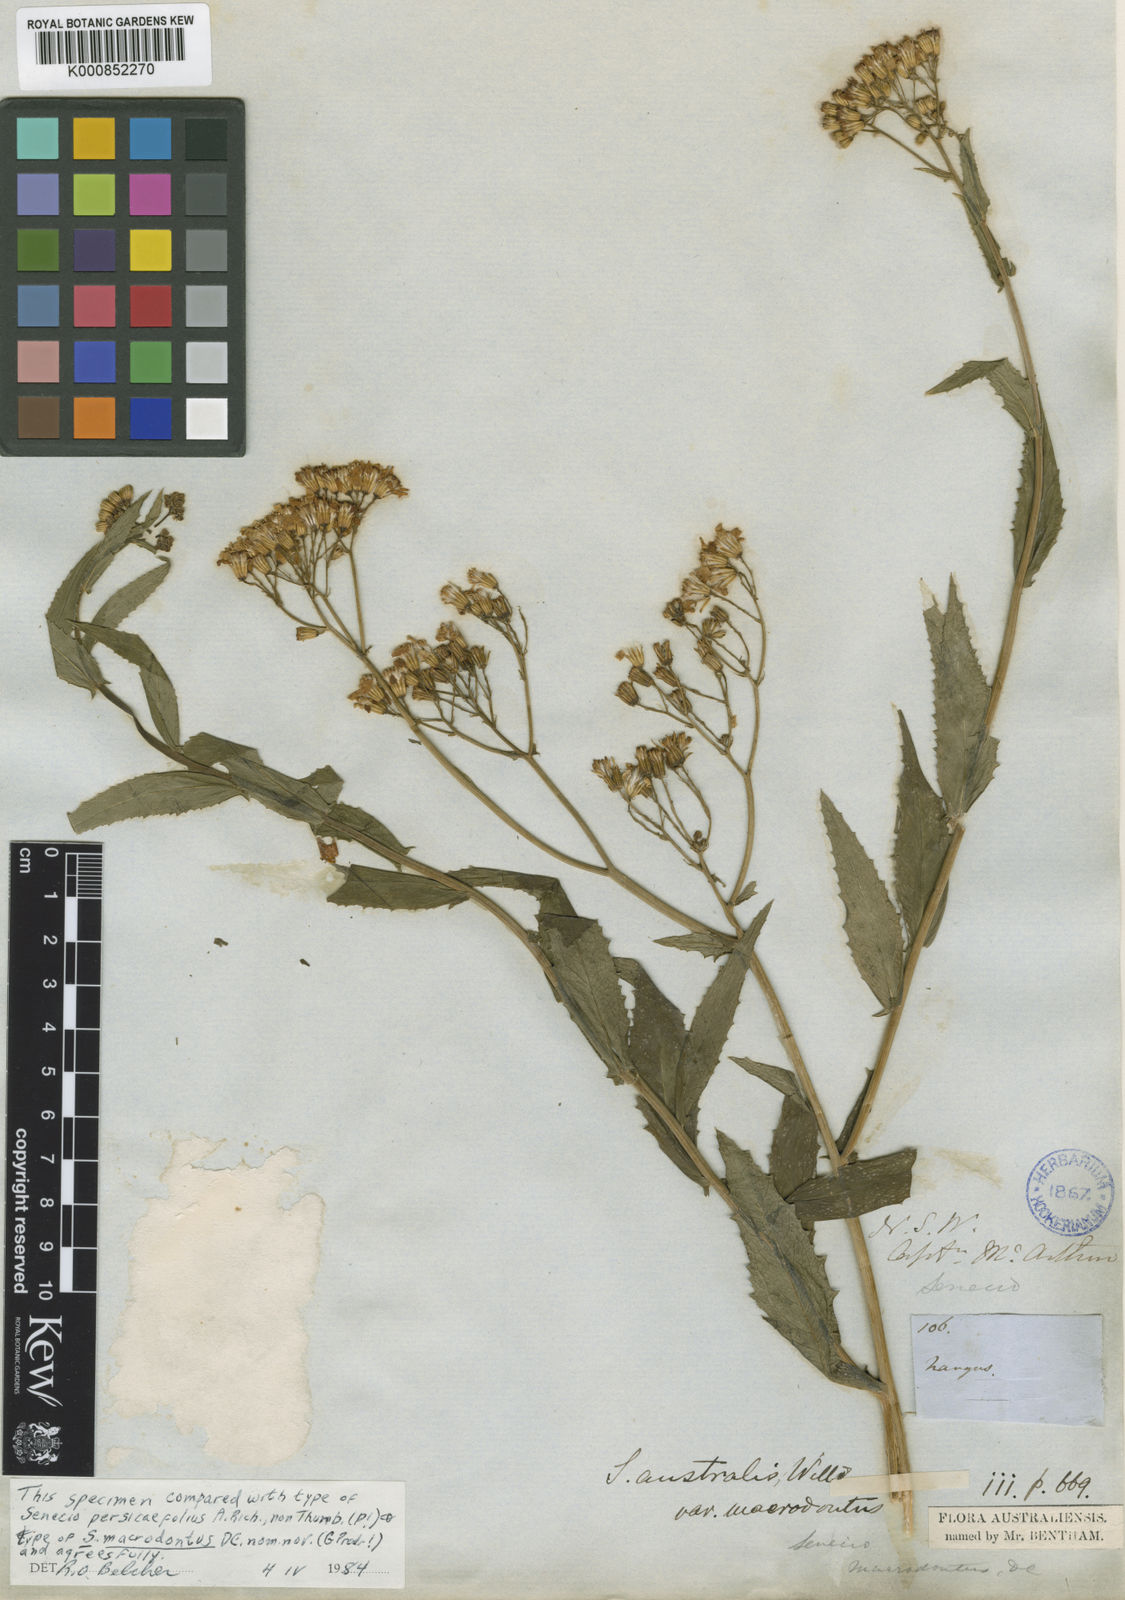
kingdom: Plantae
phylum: Tracheophyta
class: Magnoliopsida
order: Asterales
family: Asteraceae
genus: Senecio
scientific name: Senecio linearifolius
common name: Fireweed groundsel
